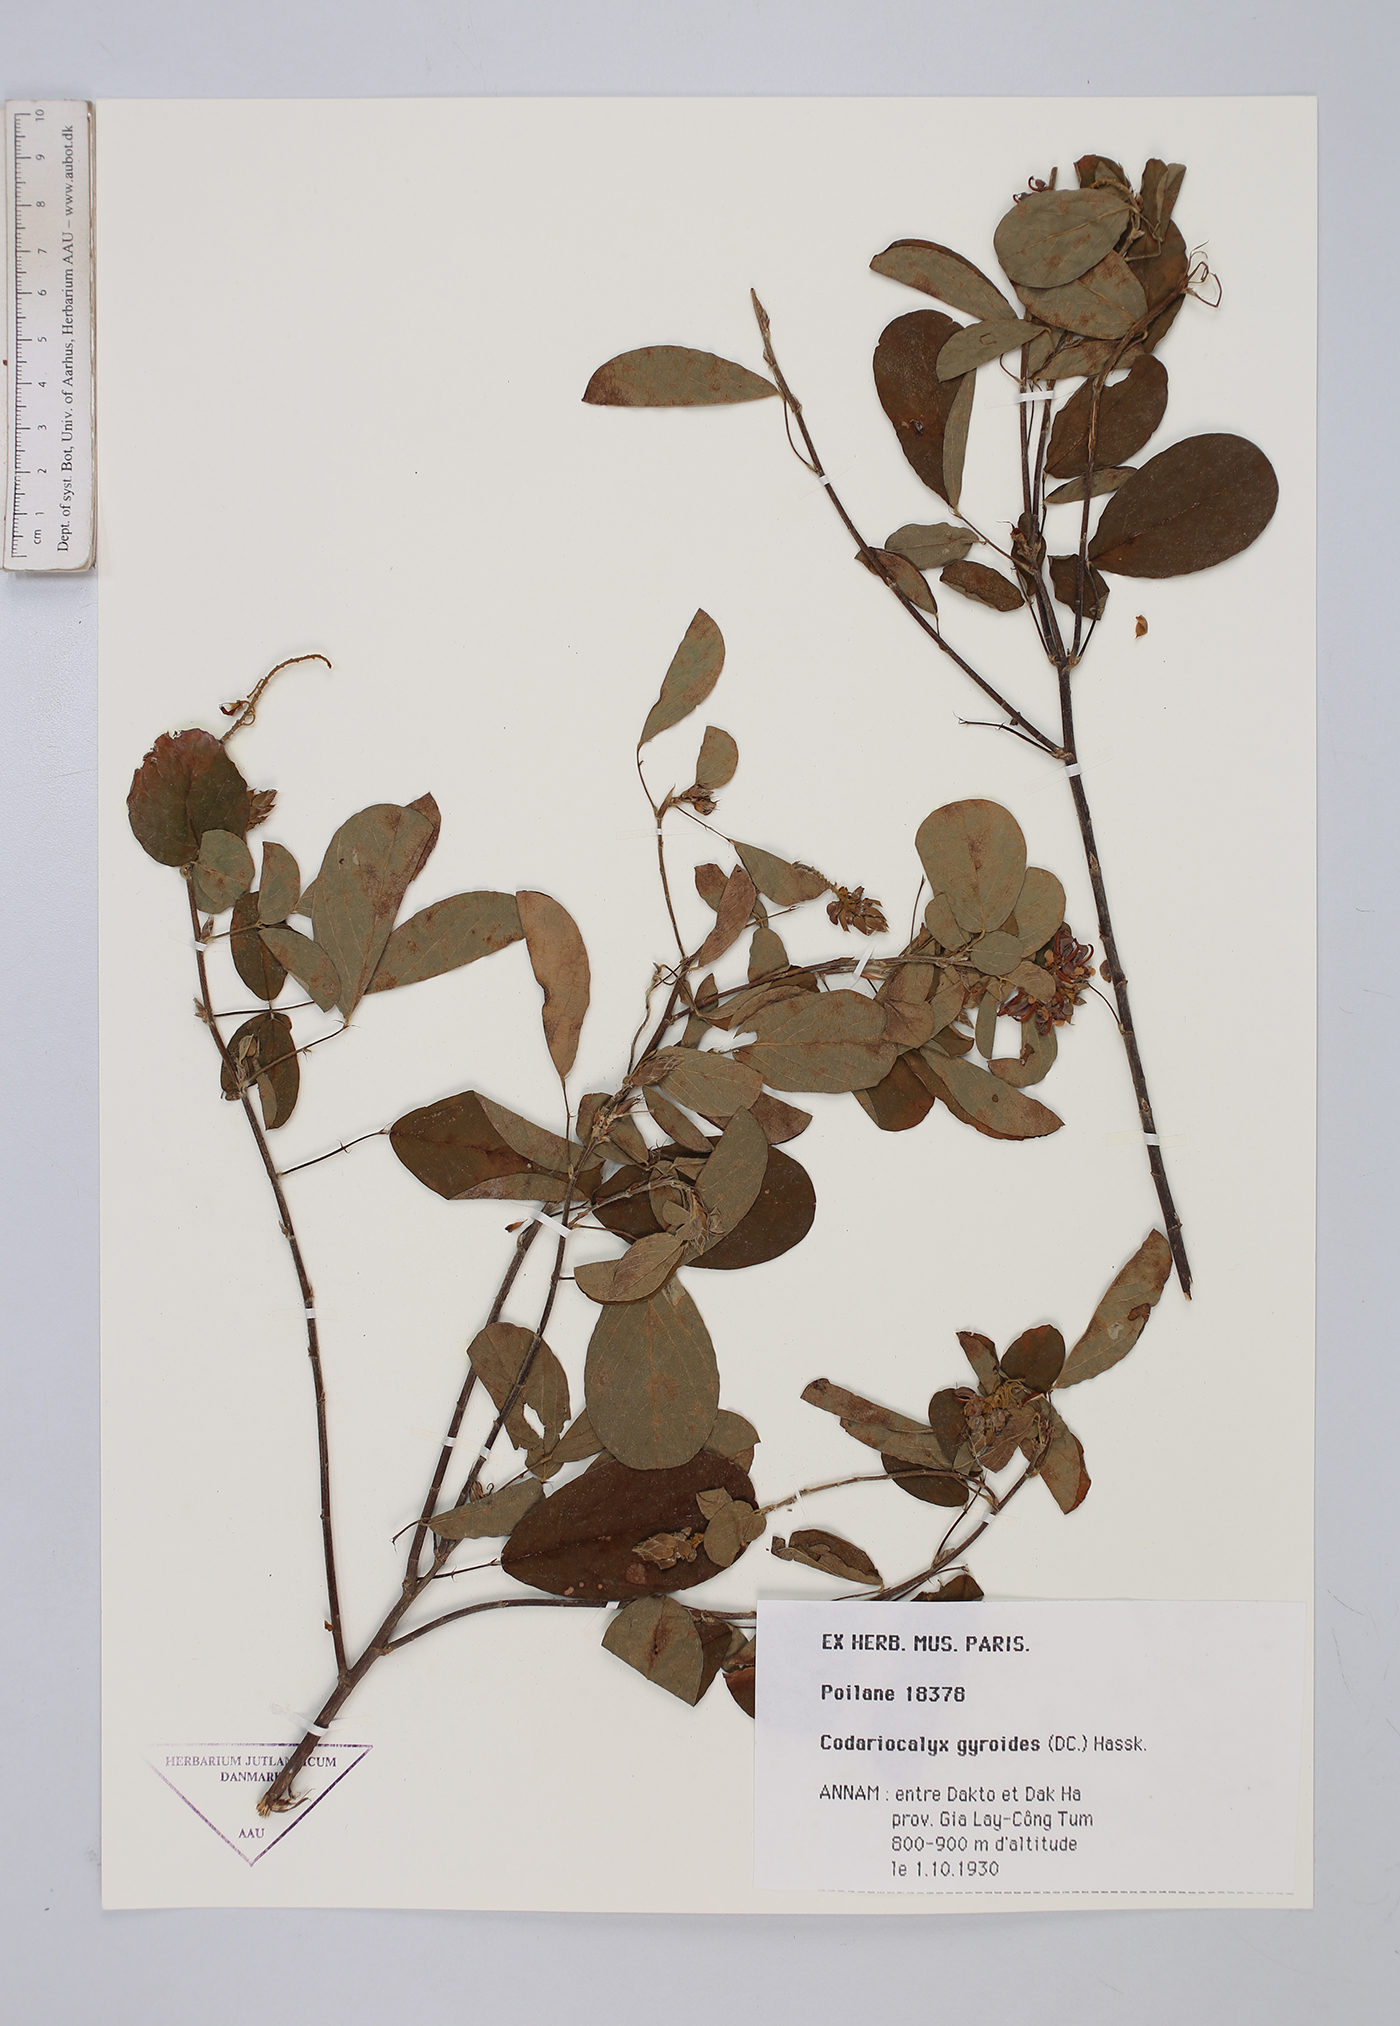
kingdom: Plantae
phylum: Tracheophyta
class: Magnoliopsida
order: Fabales
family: Fabaceae
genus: Codariocalyx
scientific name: Codariocalyx gyroides
